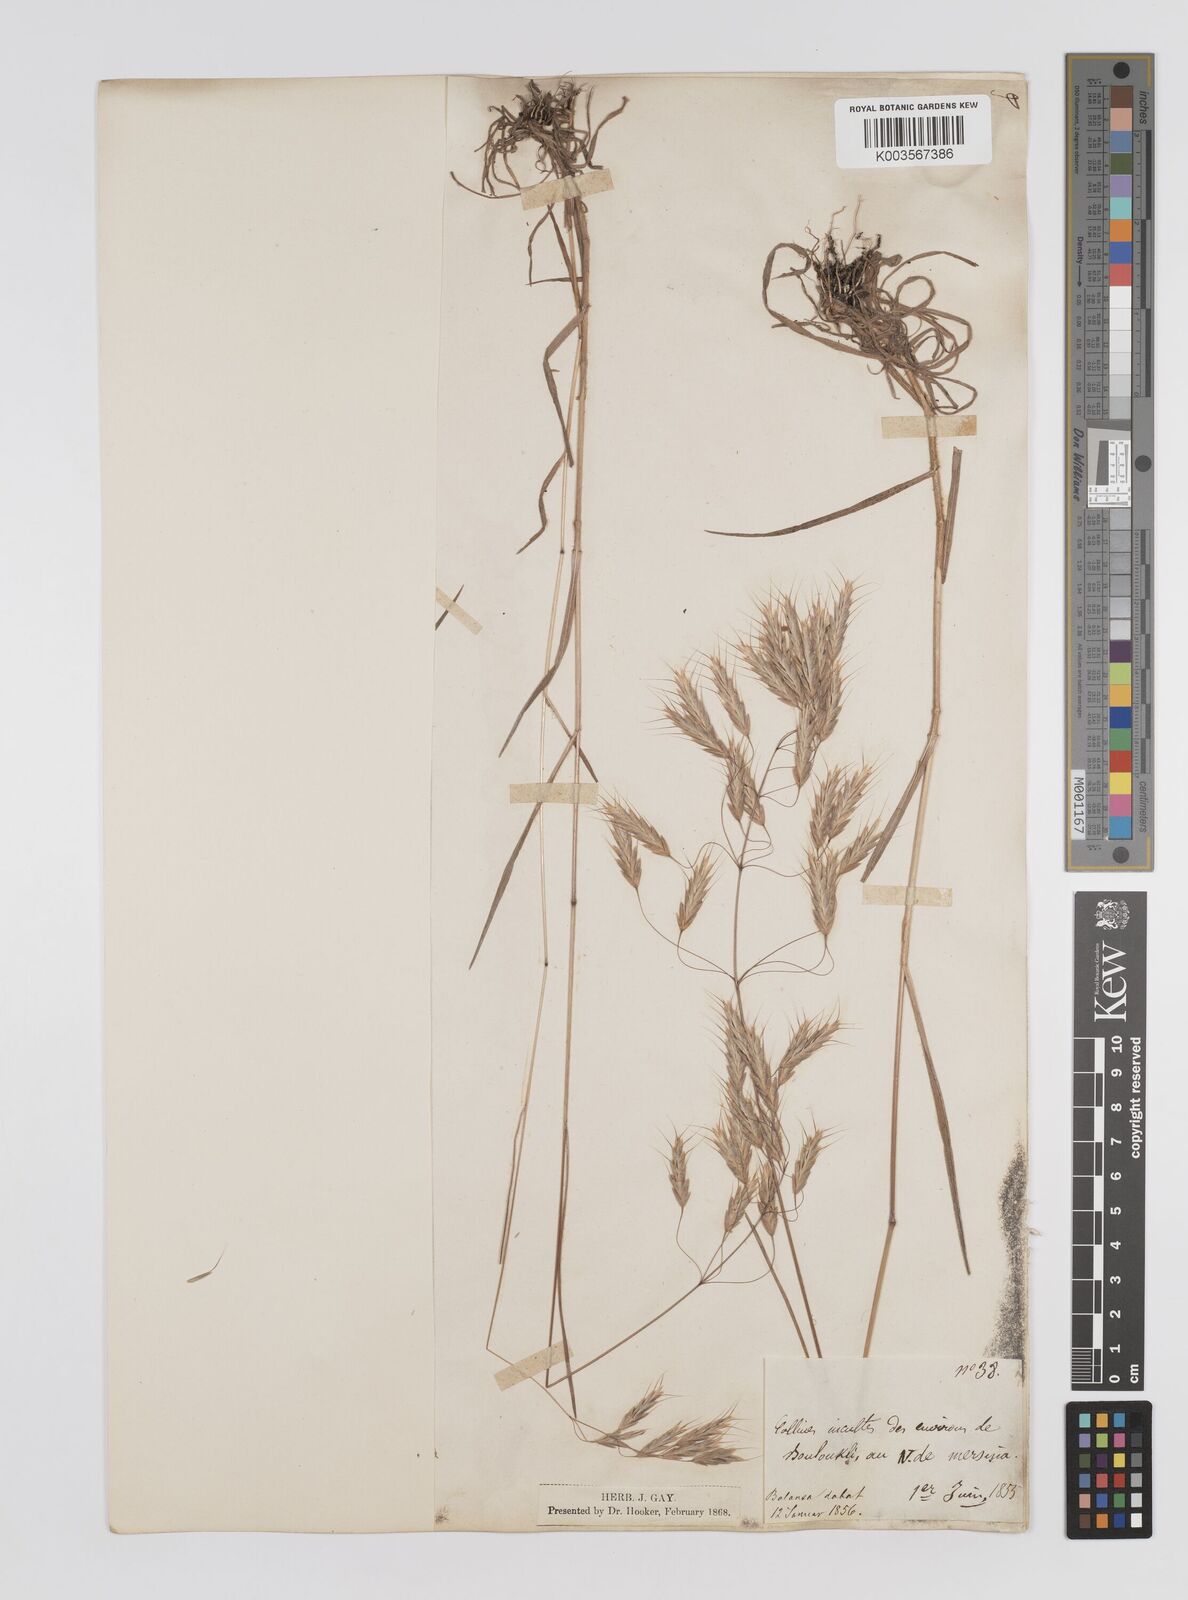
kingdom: Plantae
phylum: Tracheophyta
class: Liliopsida
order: Poales
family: Poaceae
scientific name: Poaceae
